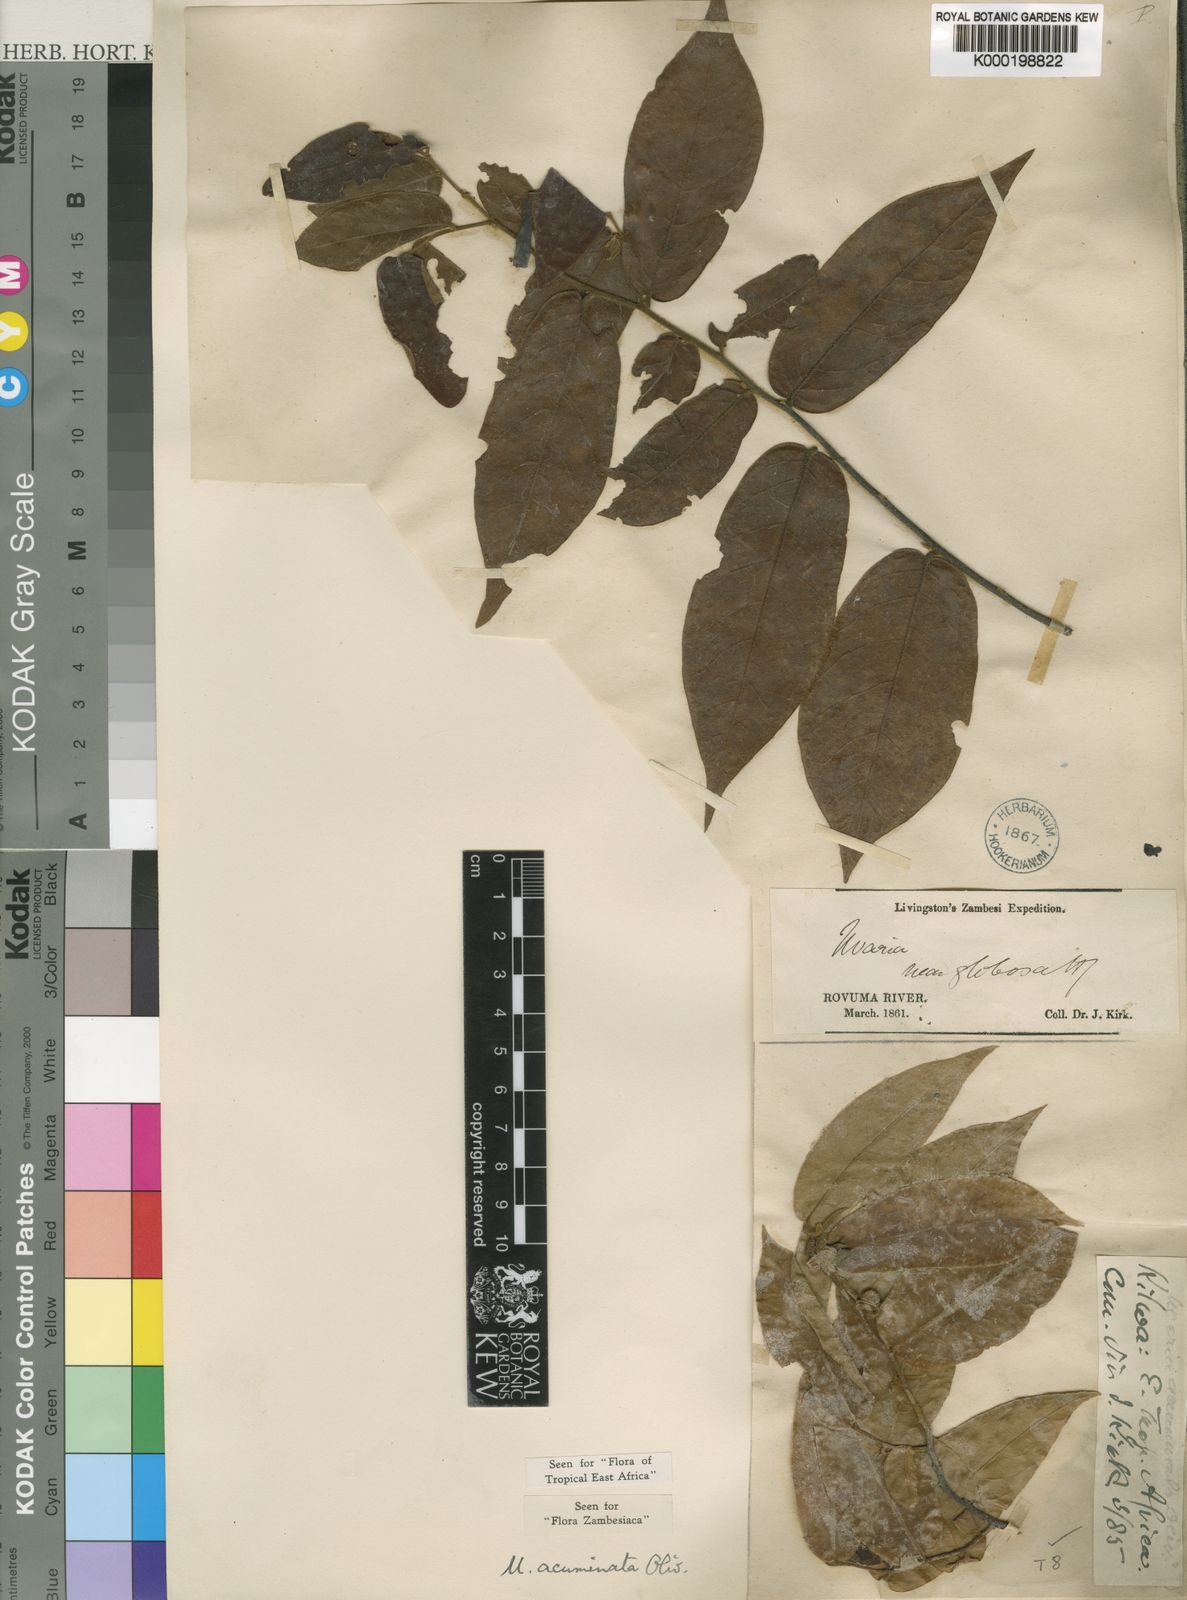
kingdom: Plantae
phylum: Tracheophyta
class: Magnoliopsida
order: Magnoliales
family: Annonaceae
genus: Uvaria
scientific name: Uvaria acuminata
